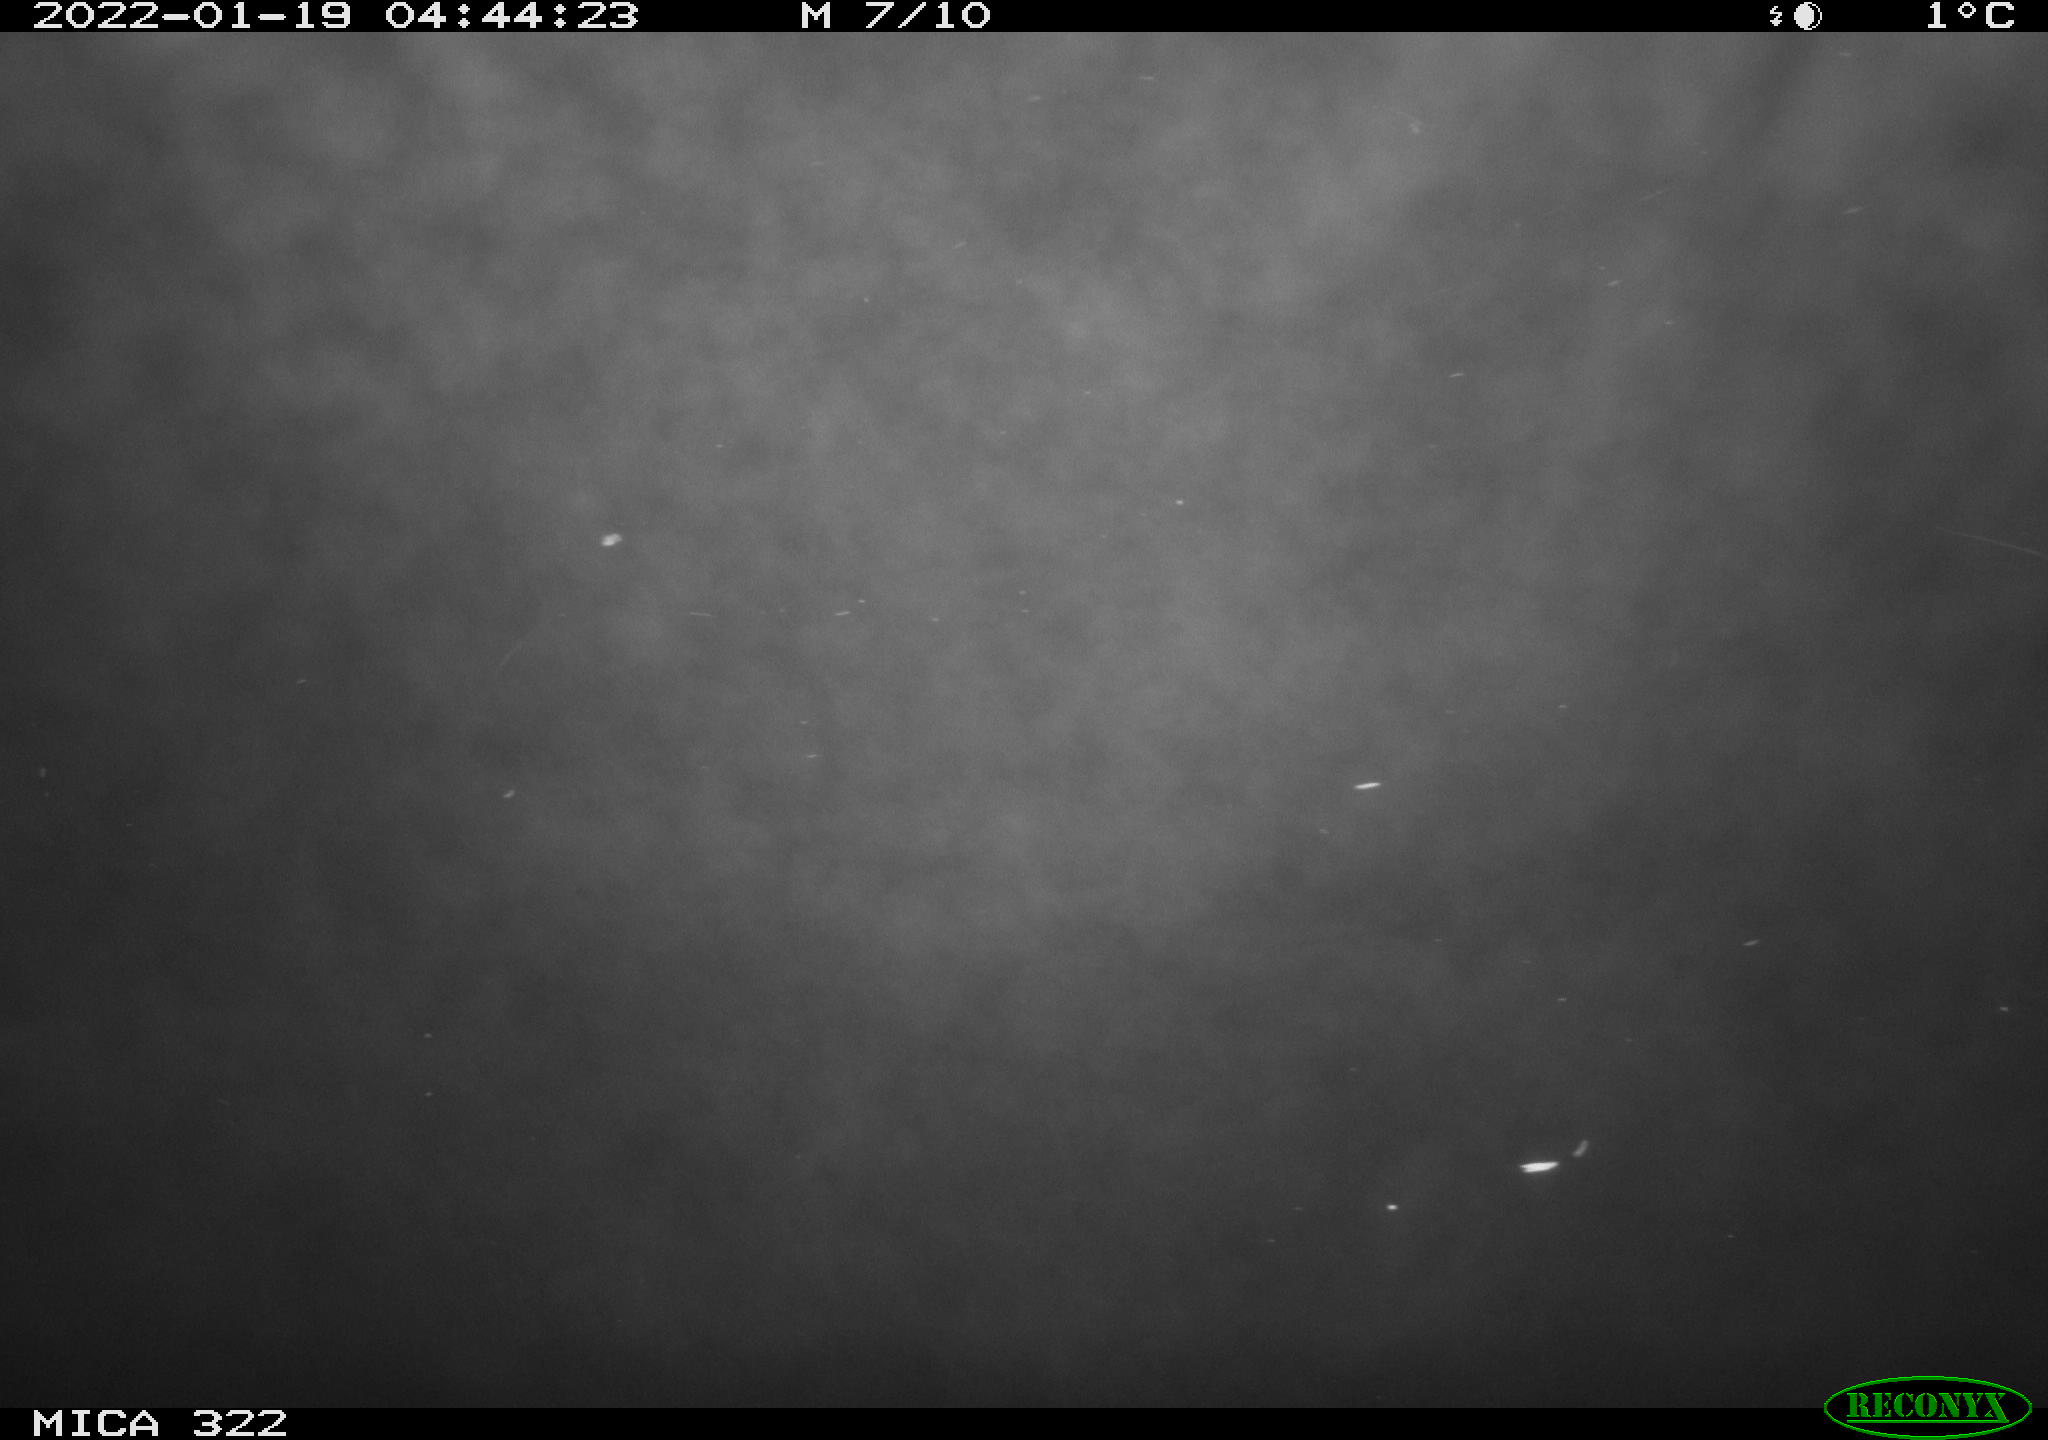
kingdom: Animalia
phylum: Chordata
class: Mammalia
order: Rodentia
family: Muridae
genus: Rattus
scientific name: Rattus norvegicus
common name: Brown rat
